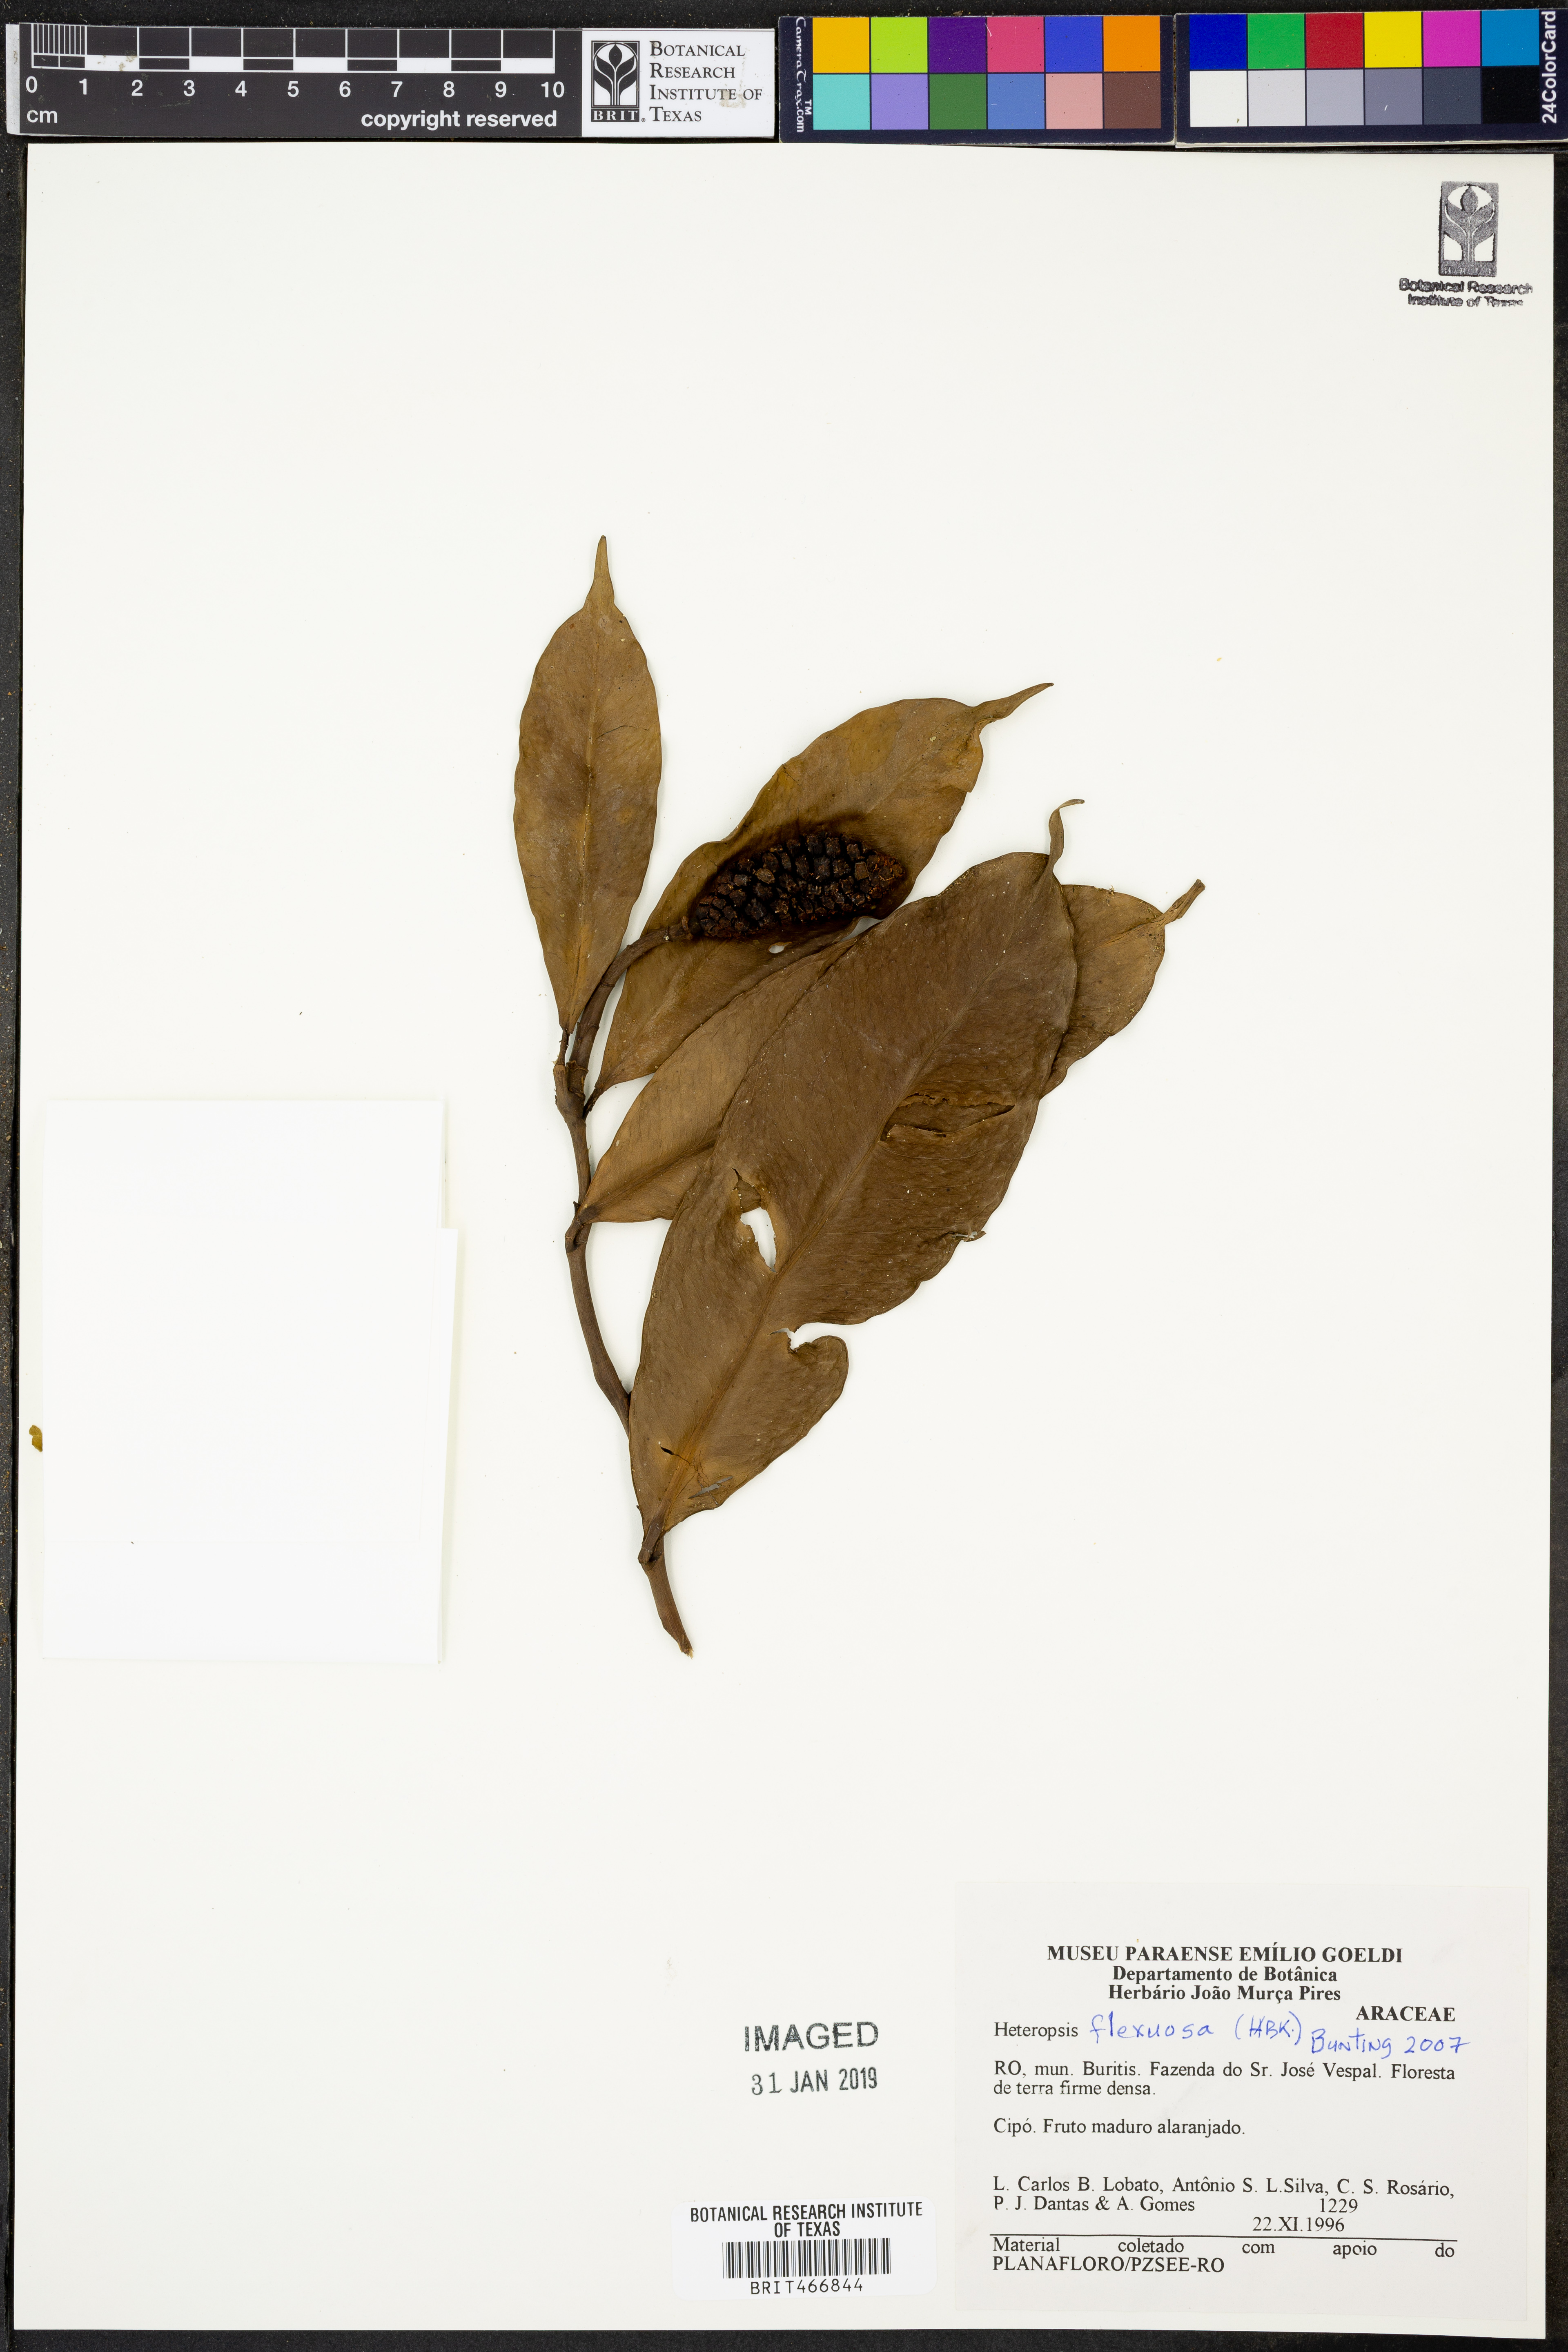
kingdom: Plantae
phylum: Tracheophyta
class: Liliopsida
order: Alismatales
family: Araceae
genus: Heteropsis
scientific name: Heteropsis flexuosa
